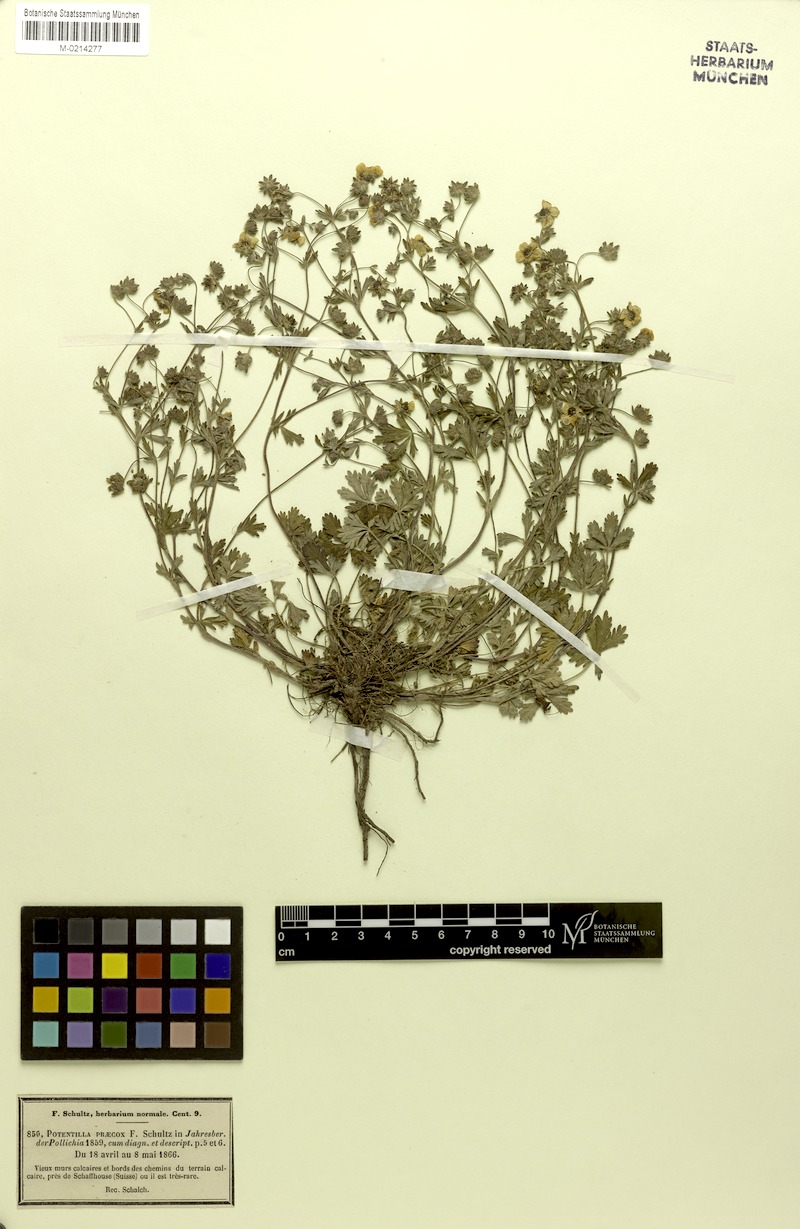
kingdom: Plantae
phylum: Tracheophyta
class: Magnoliopsida
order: Rosales
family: Rosaceae
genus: Potentilla
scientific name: Potentilla collina
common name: Palmleaf cinquefoil
